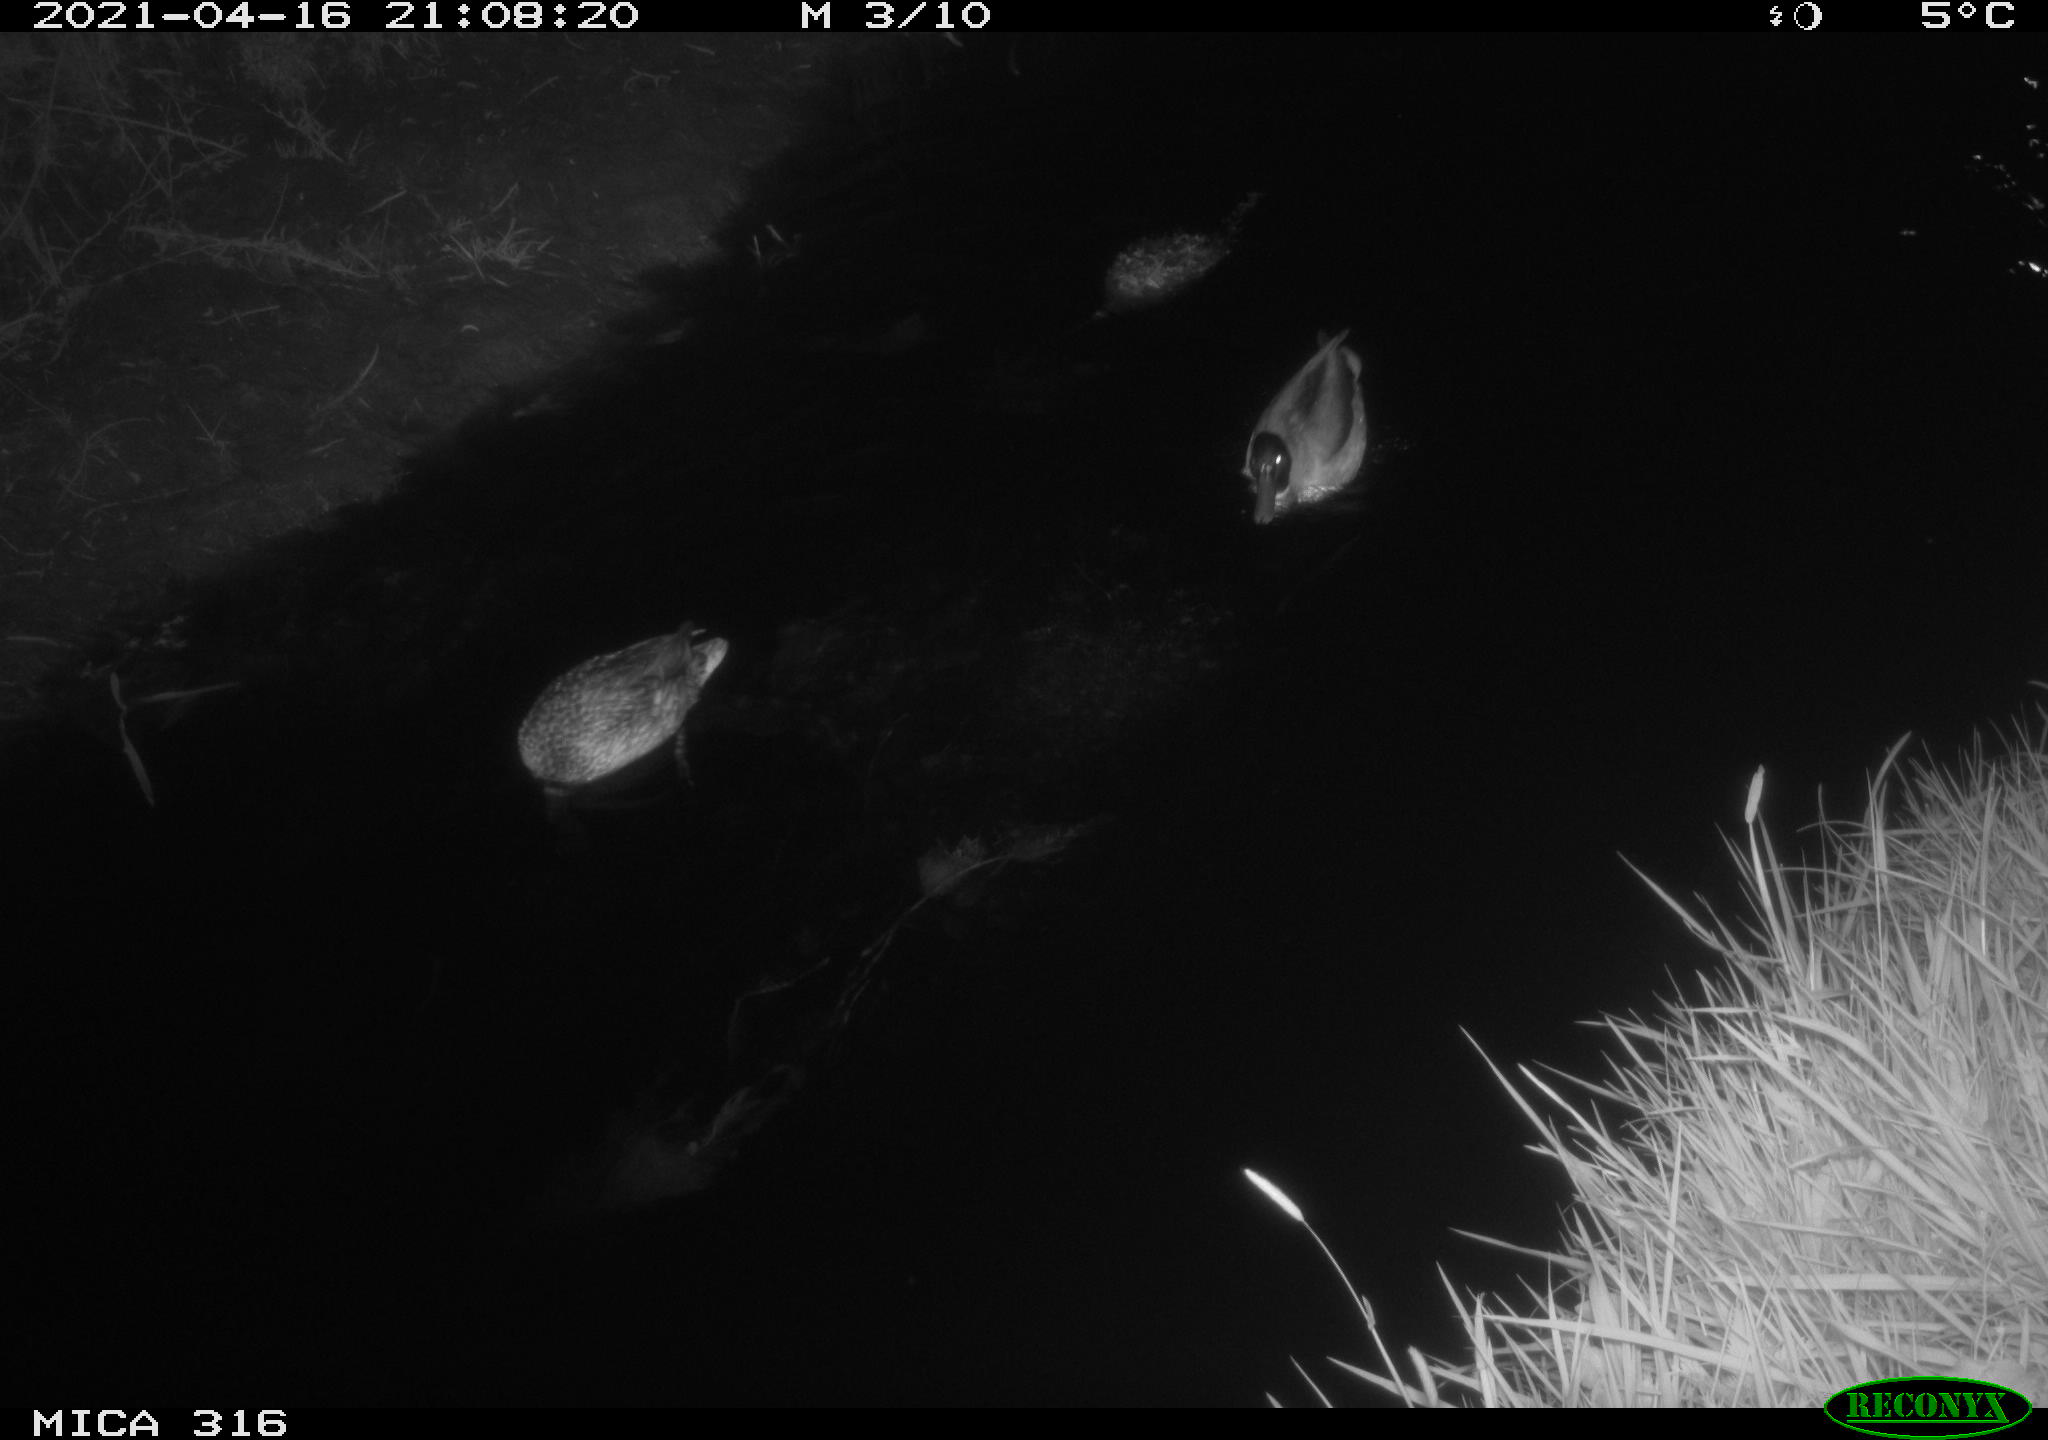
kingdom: Animalia
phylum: Chordata
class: Aves
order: Anseriformes
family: Anatidae
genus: Anas
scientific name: Anas platyrhynchos
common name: Mallard
